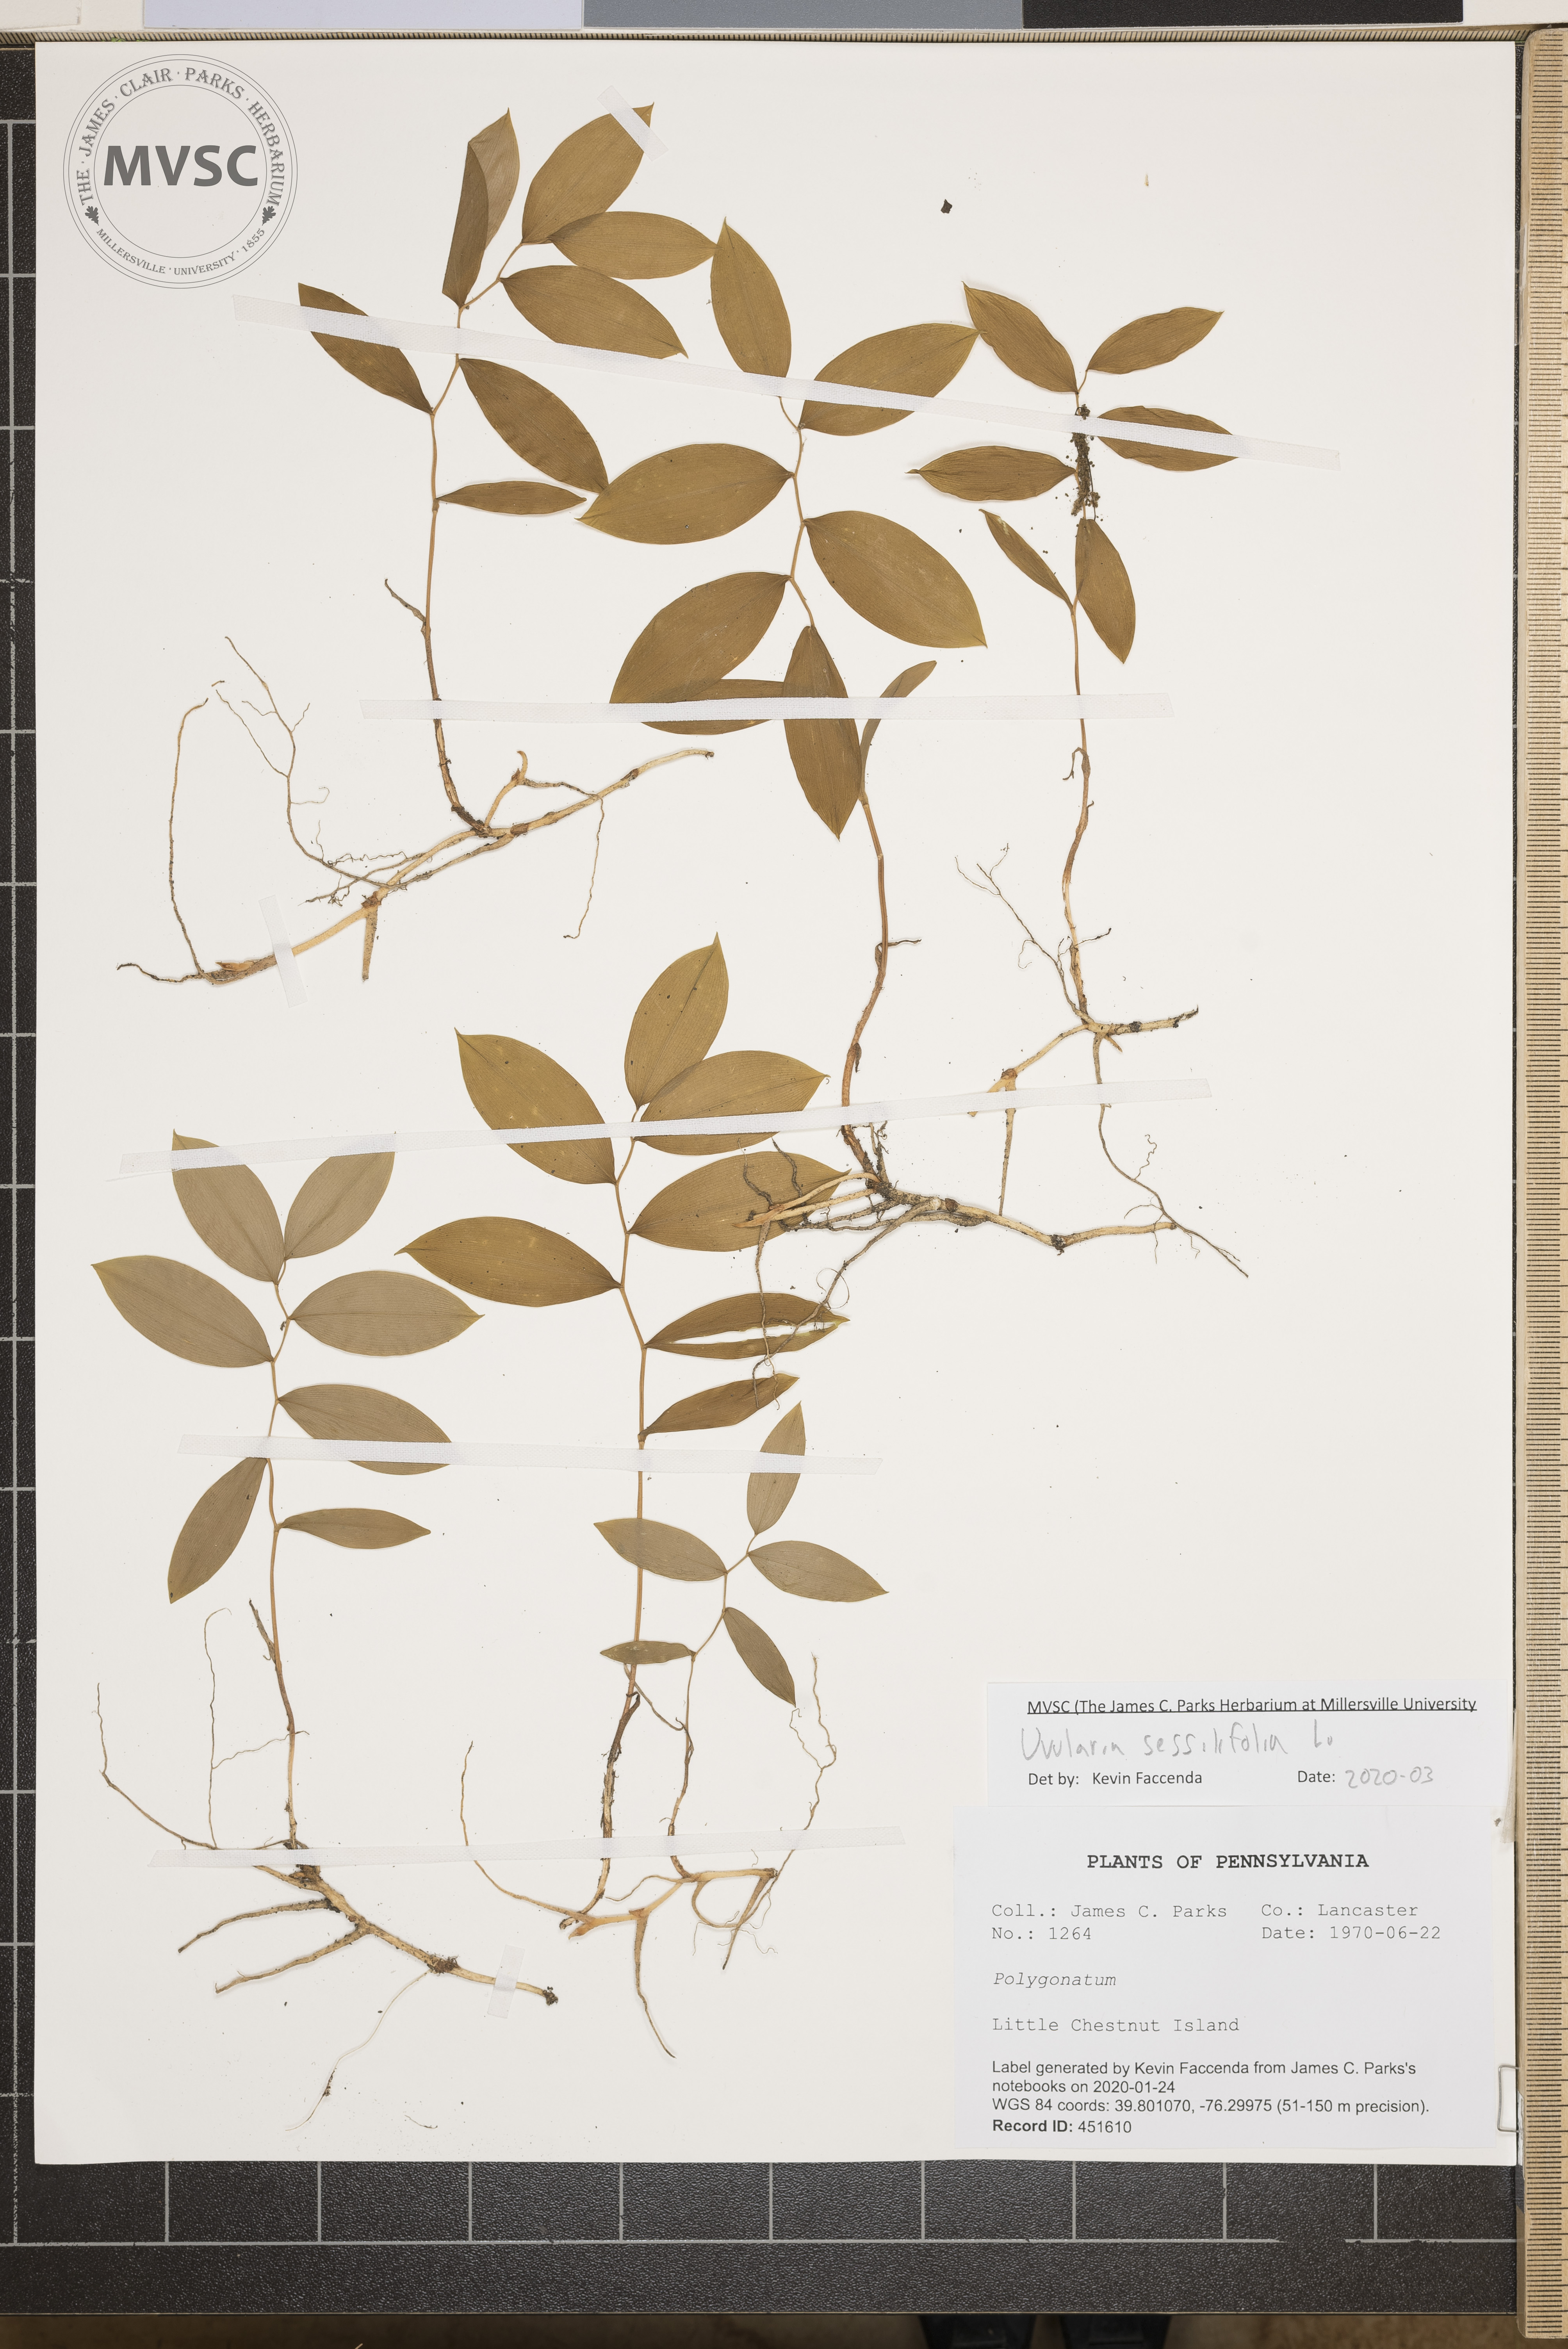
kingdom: Plantae
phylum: Tracheophyta
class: Liliopsida
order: Liliales
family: Colchicaceae
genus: Uvularia
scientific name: Uvularia sessilifolia
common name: Straw-lily
